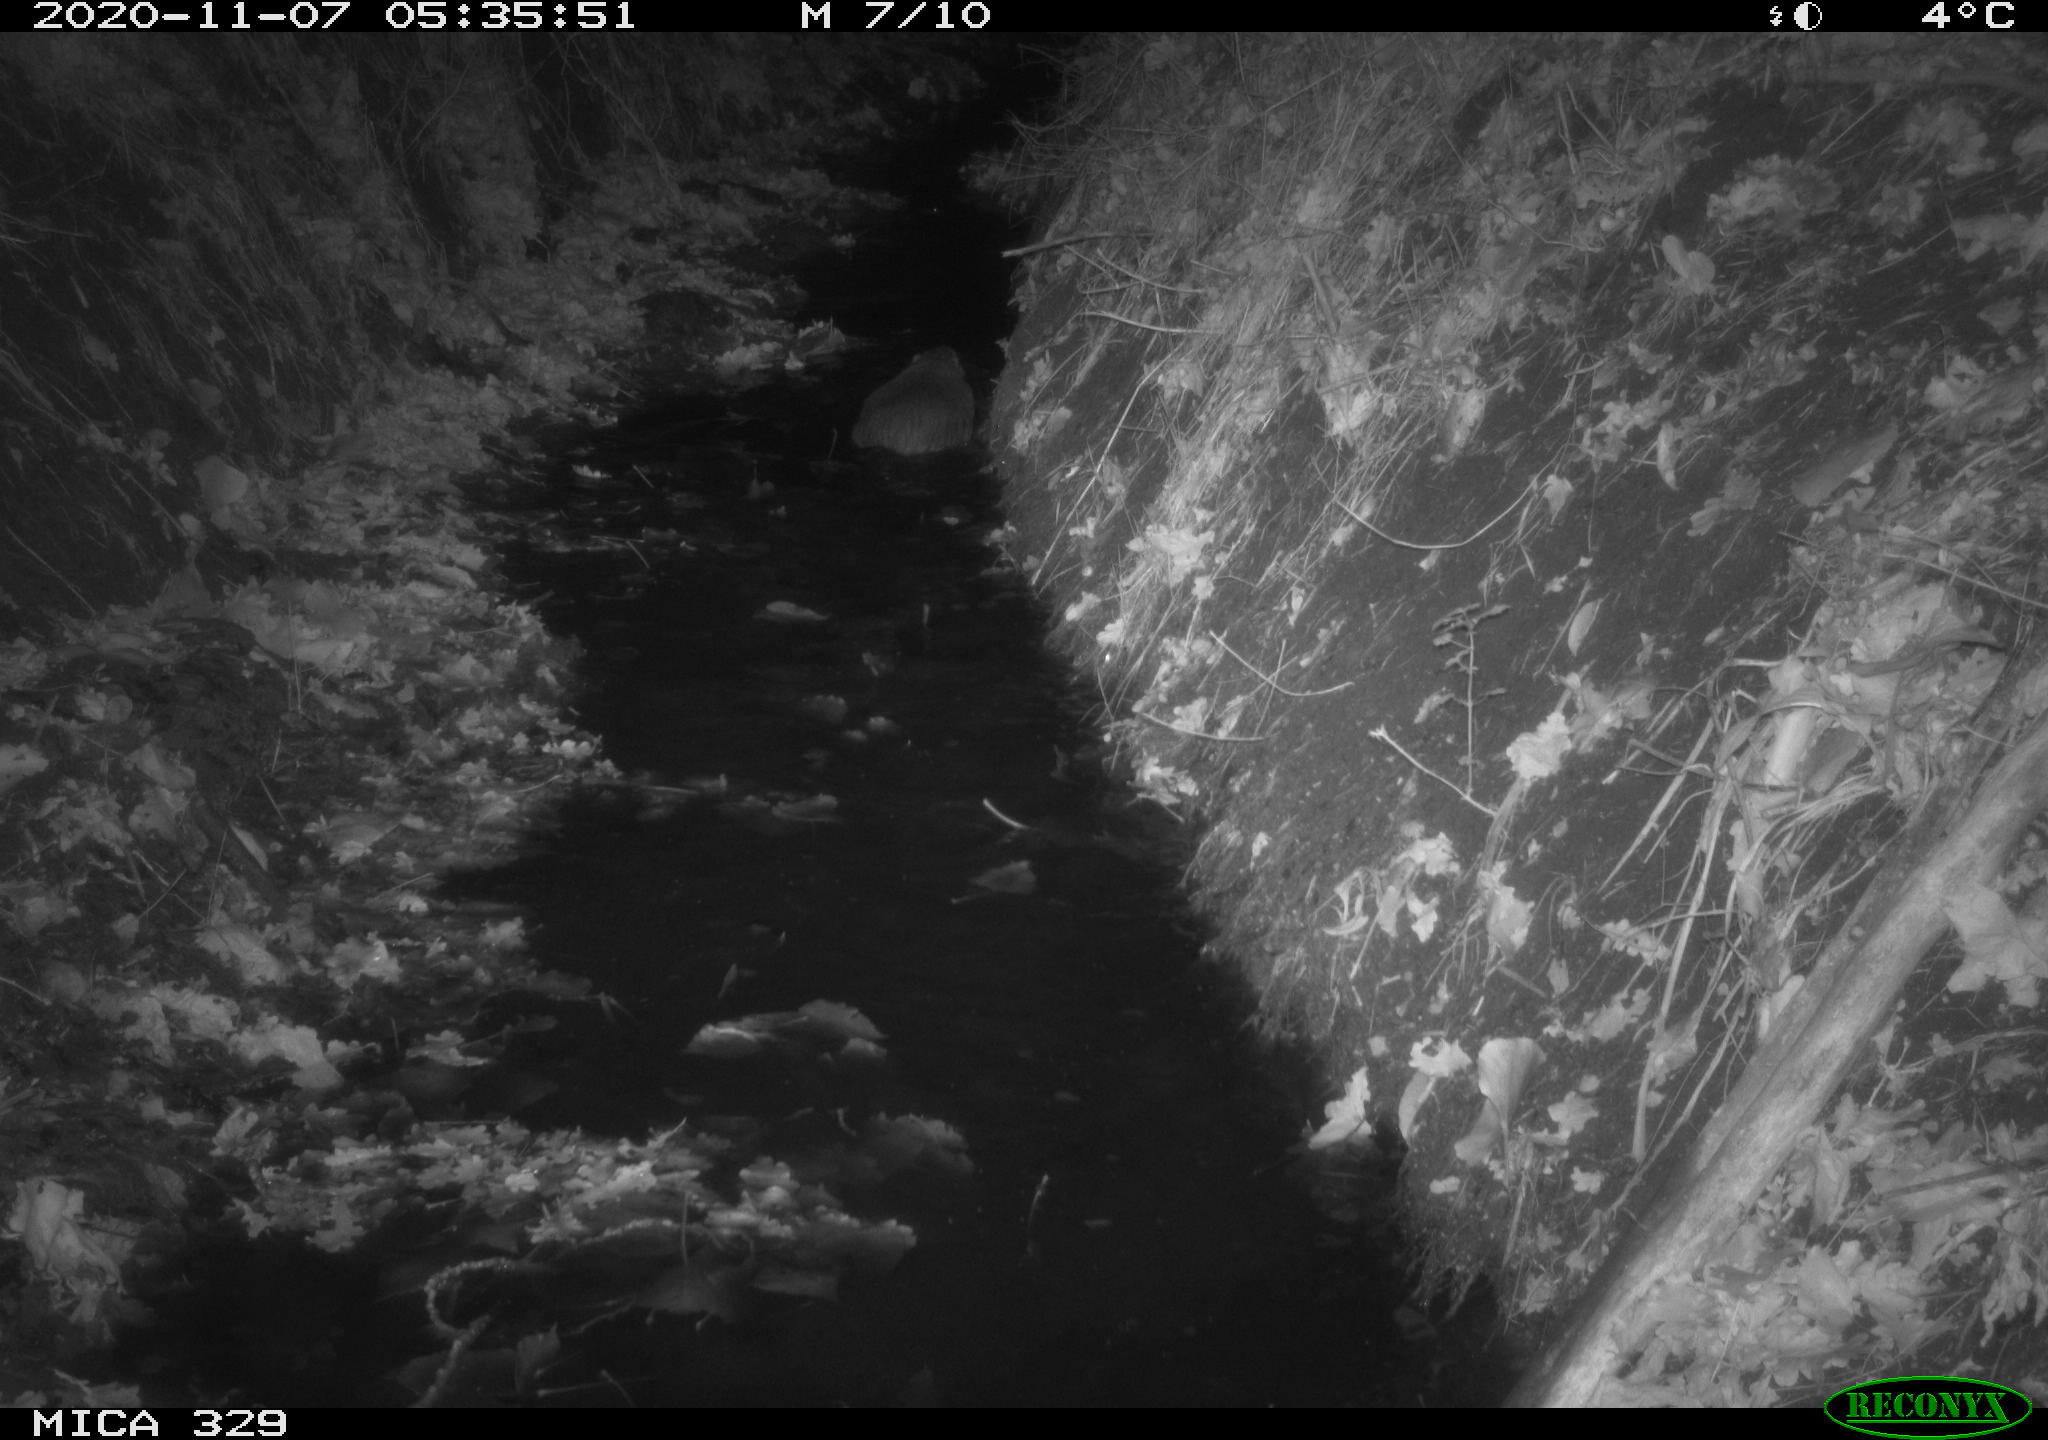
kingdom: Animalia
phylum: Chordata
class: Mammalia
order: Rodentia
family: Myocastoridae
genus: Myocastor
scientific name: Myocastor coypus
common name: Coypu
